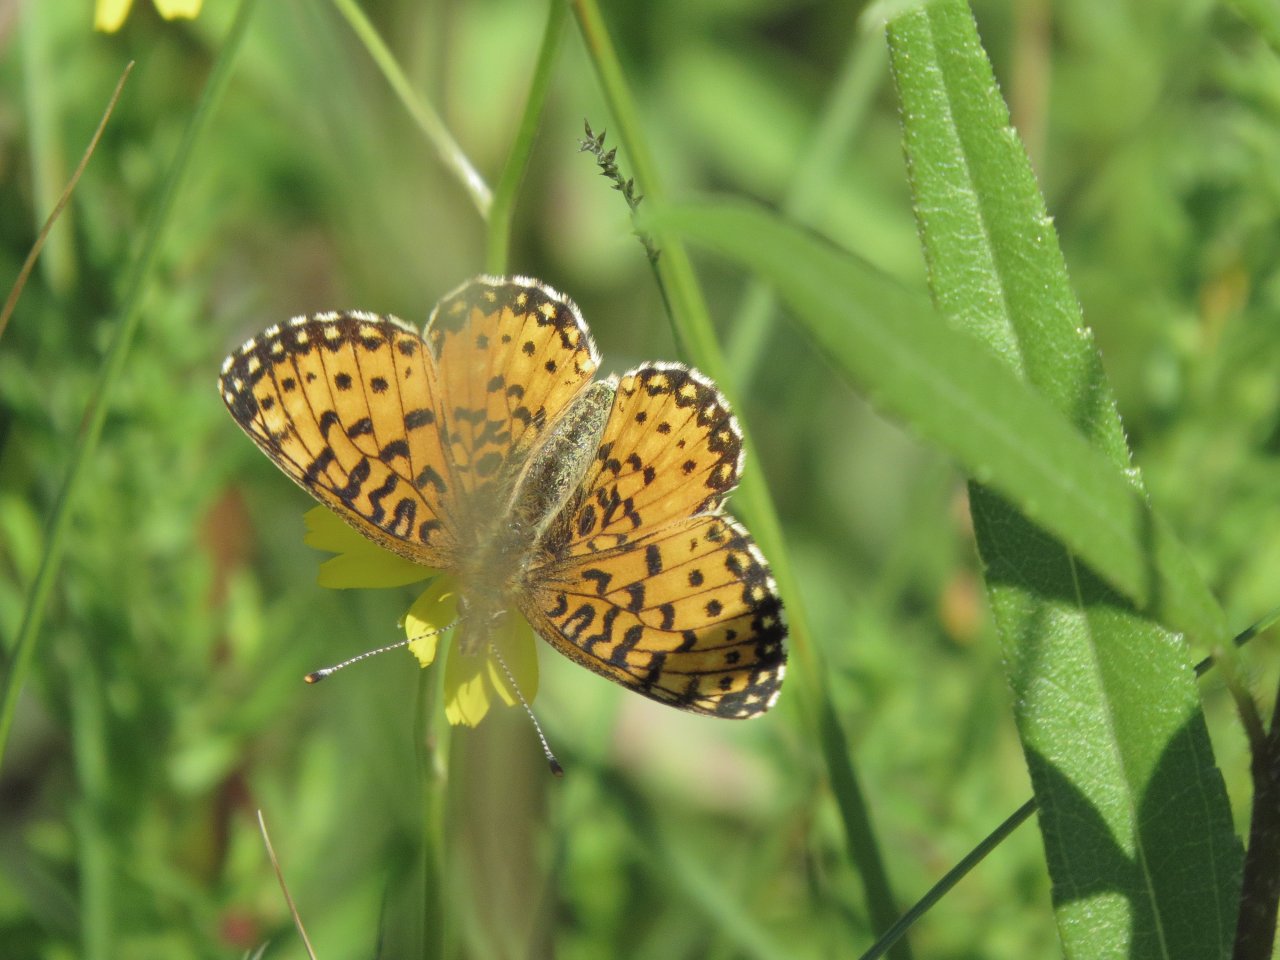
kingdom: Animalia
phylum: Arthropoda
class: Insecta
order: Lepidoptera
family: Nymphalidae
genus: Boloria
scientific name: Boloria selene
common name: Silver-bordered Fritillary
